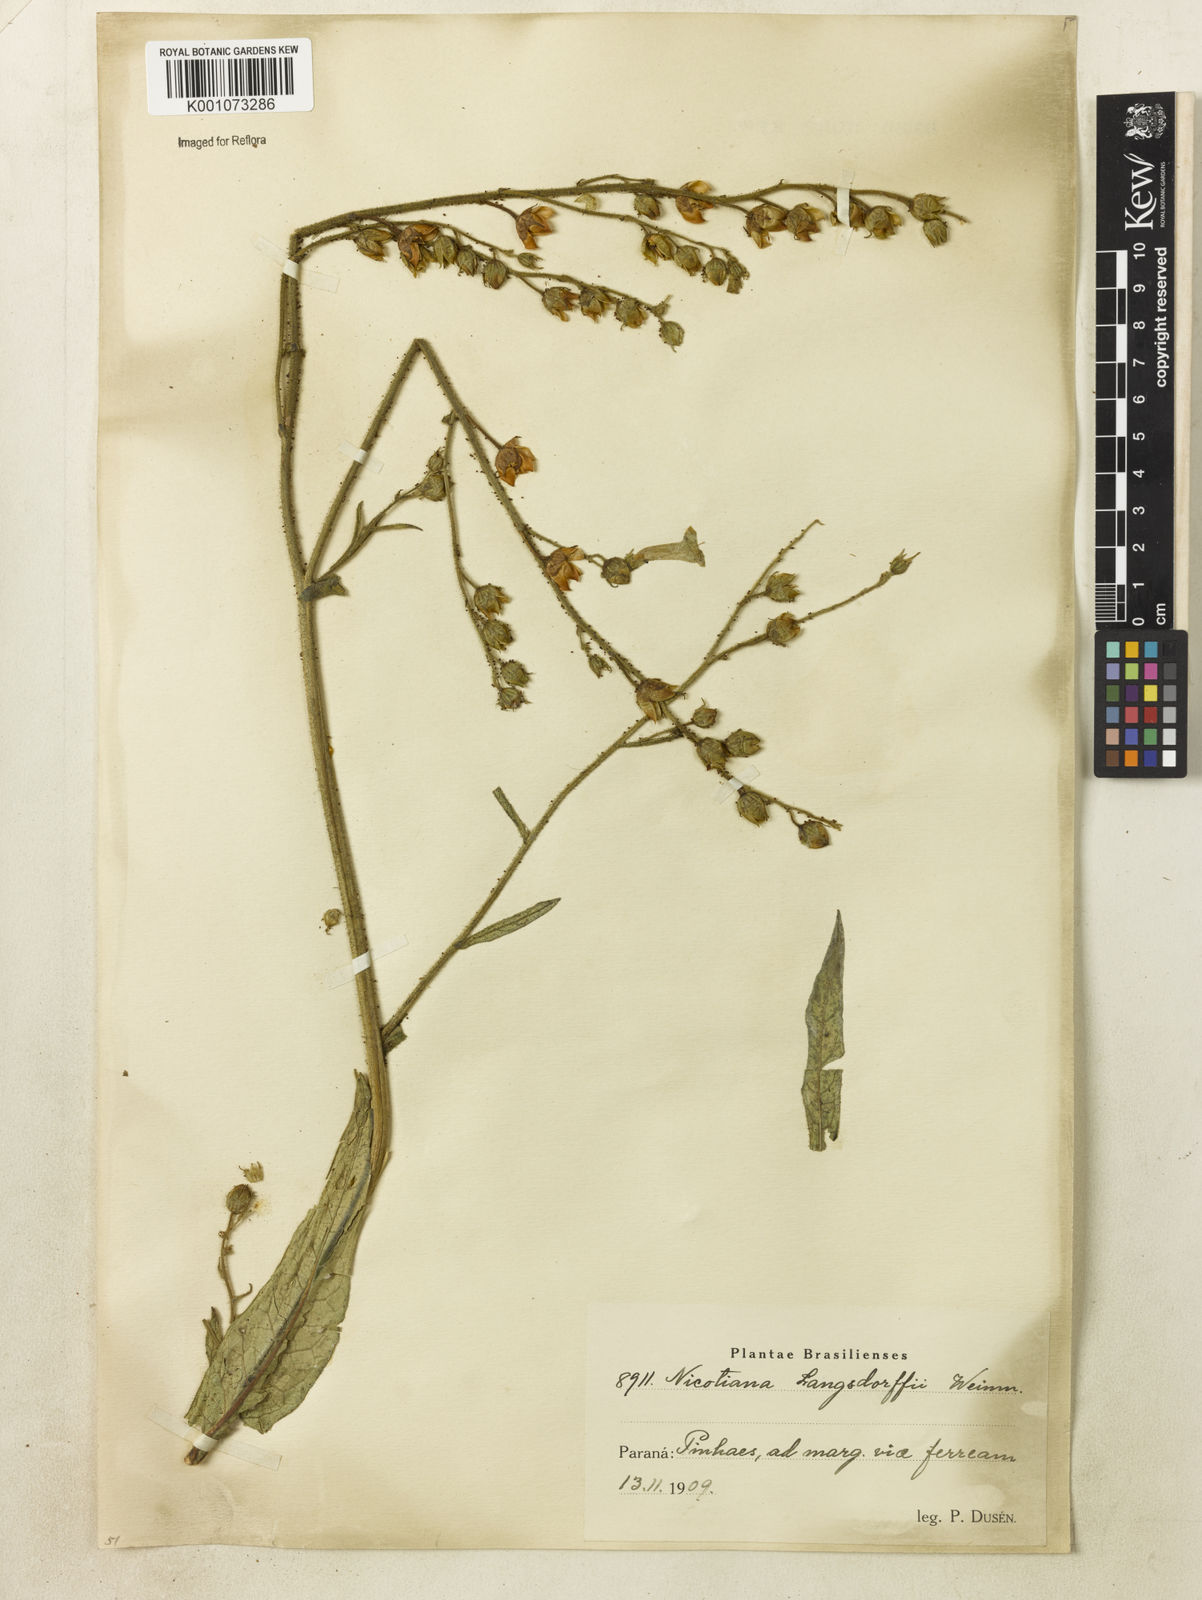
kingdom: Plantae
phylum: Tracheophyta
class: Magnoliopsida
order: Solanales
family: Solanaceae
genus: Nicotiana
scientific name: Nicotiana
